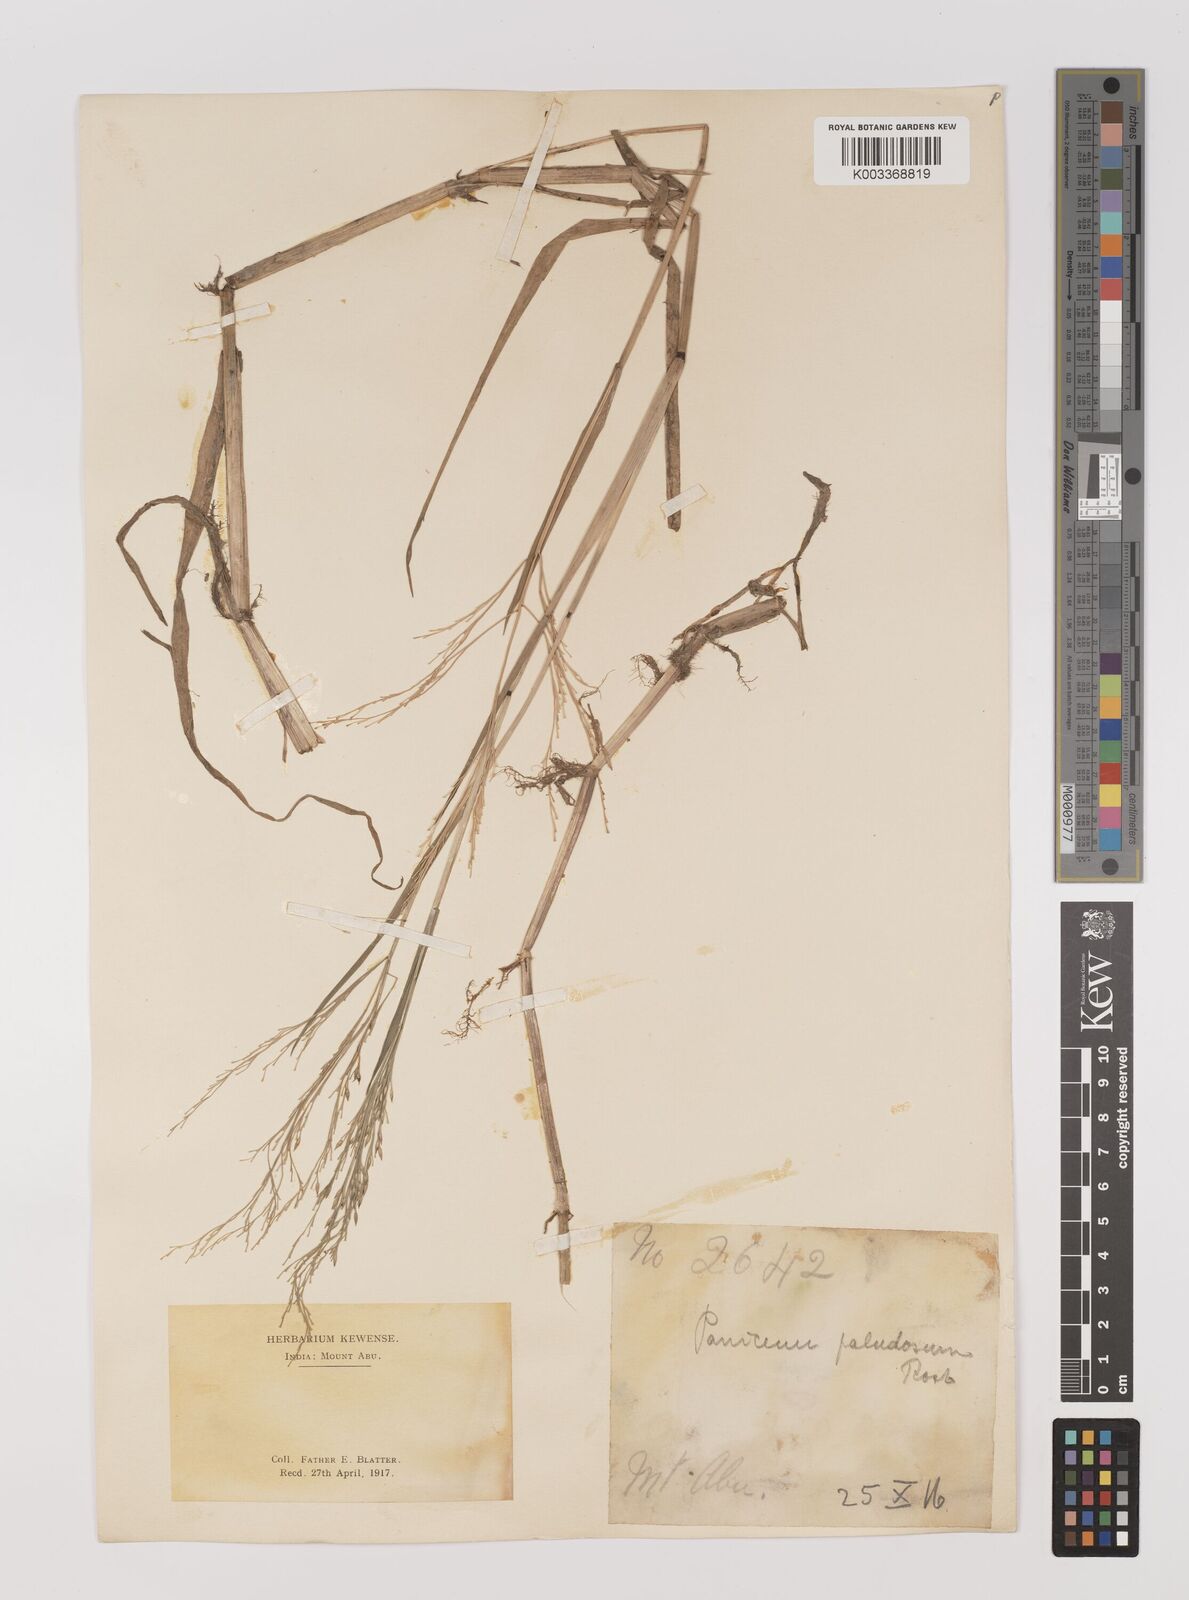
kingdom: Plantae
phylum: Tracheophyta
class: Liliopsida
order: Poales
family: Poaceae
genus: Louisiella
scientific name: Louisiella paludosa
